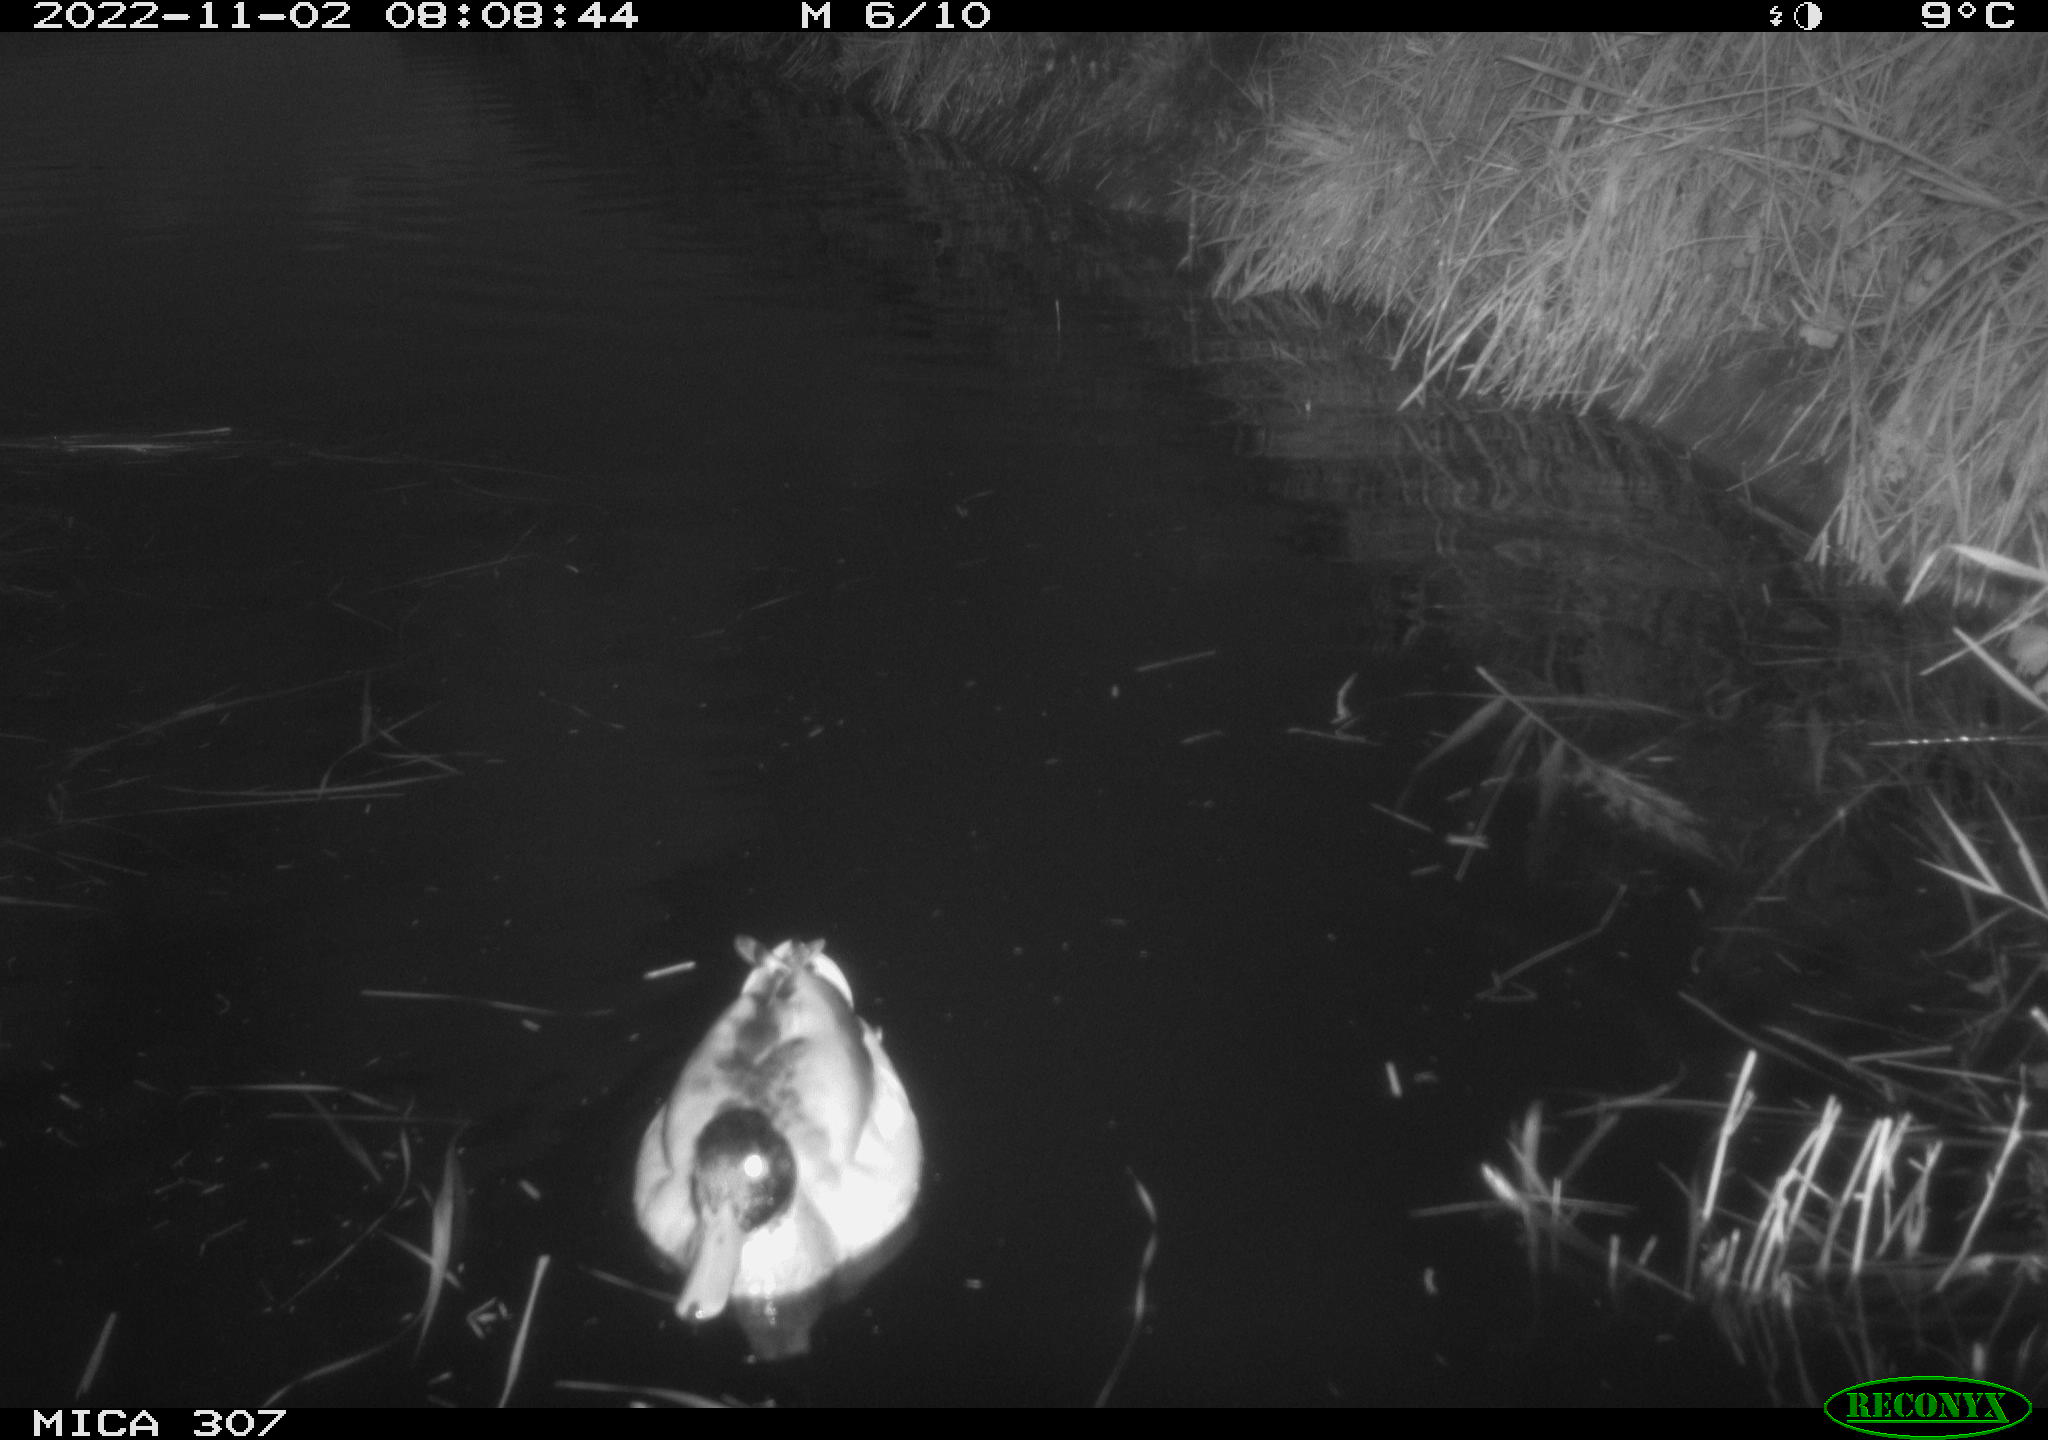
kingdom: Animalia
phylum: Chordata
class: Aves
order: Anseriformes
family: Anatidae
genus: Anas
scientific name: Anas
